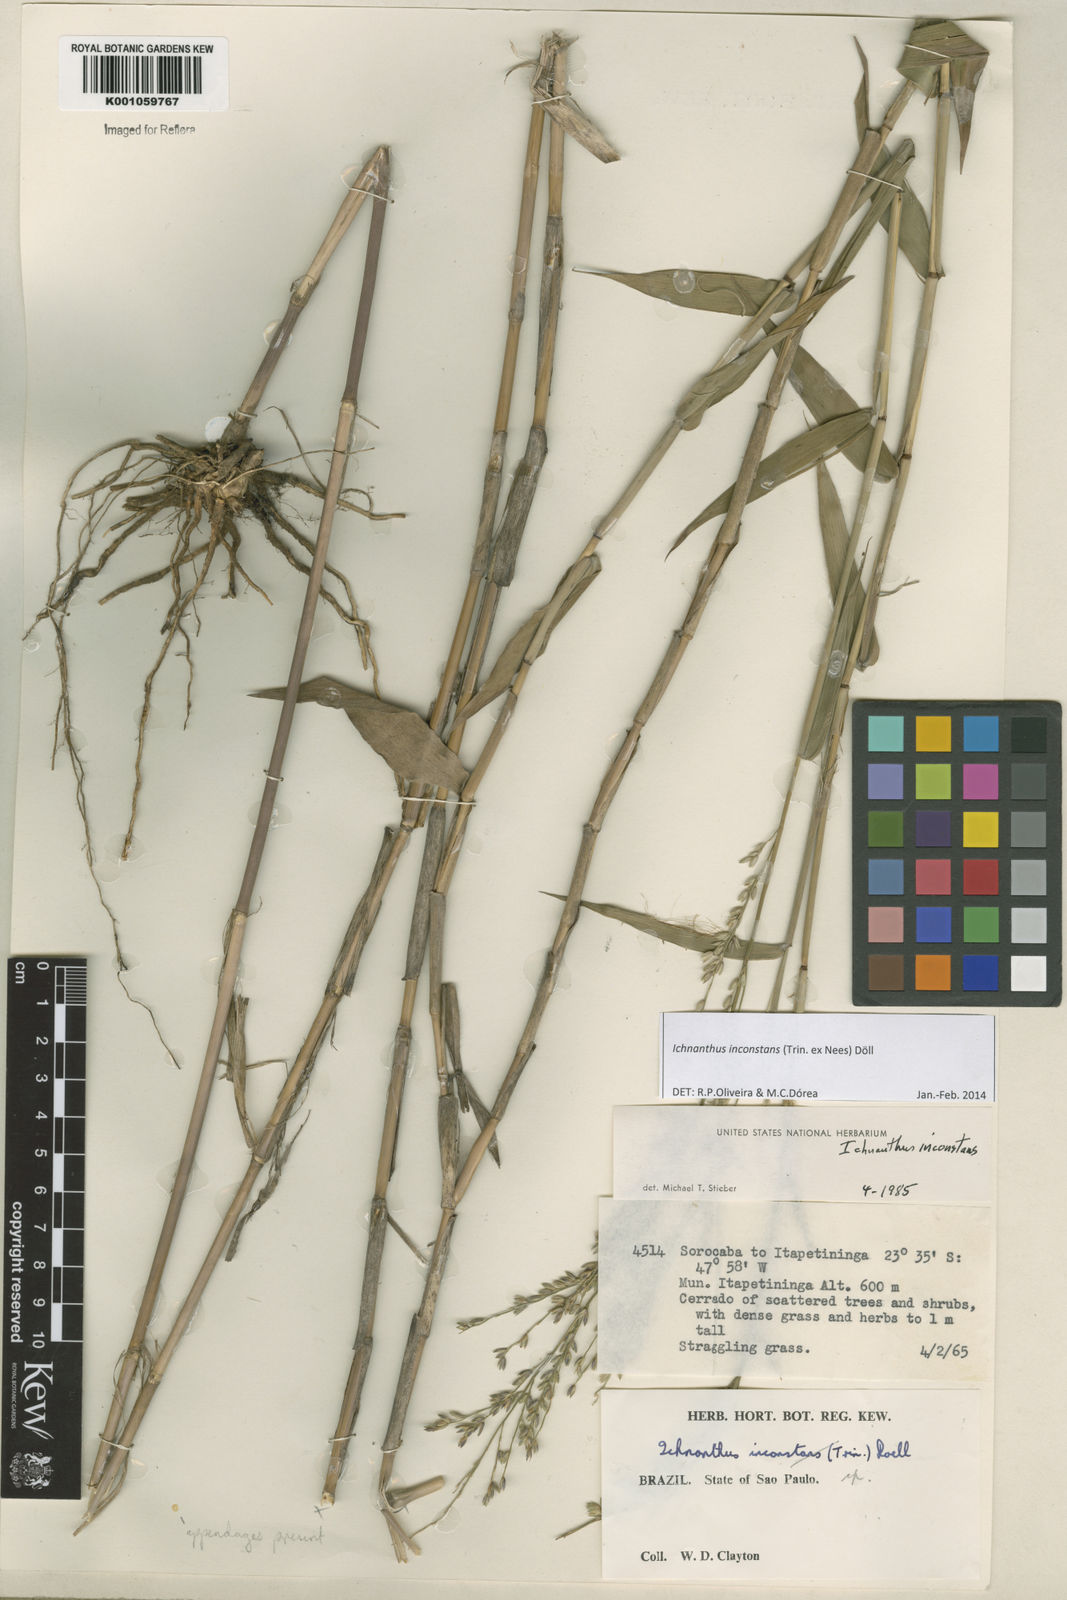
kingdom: Plantae
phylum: Tracheophyta
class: Liliopsida
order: Poales
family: Poaceae
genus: Ichnanthus
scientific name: Ichnanthus
